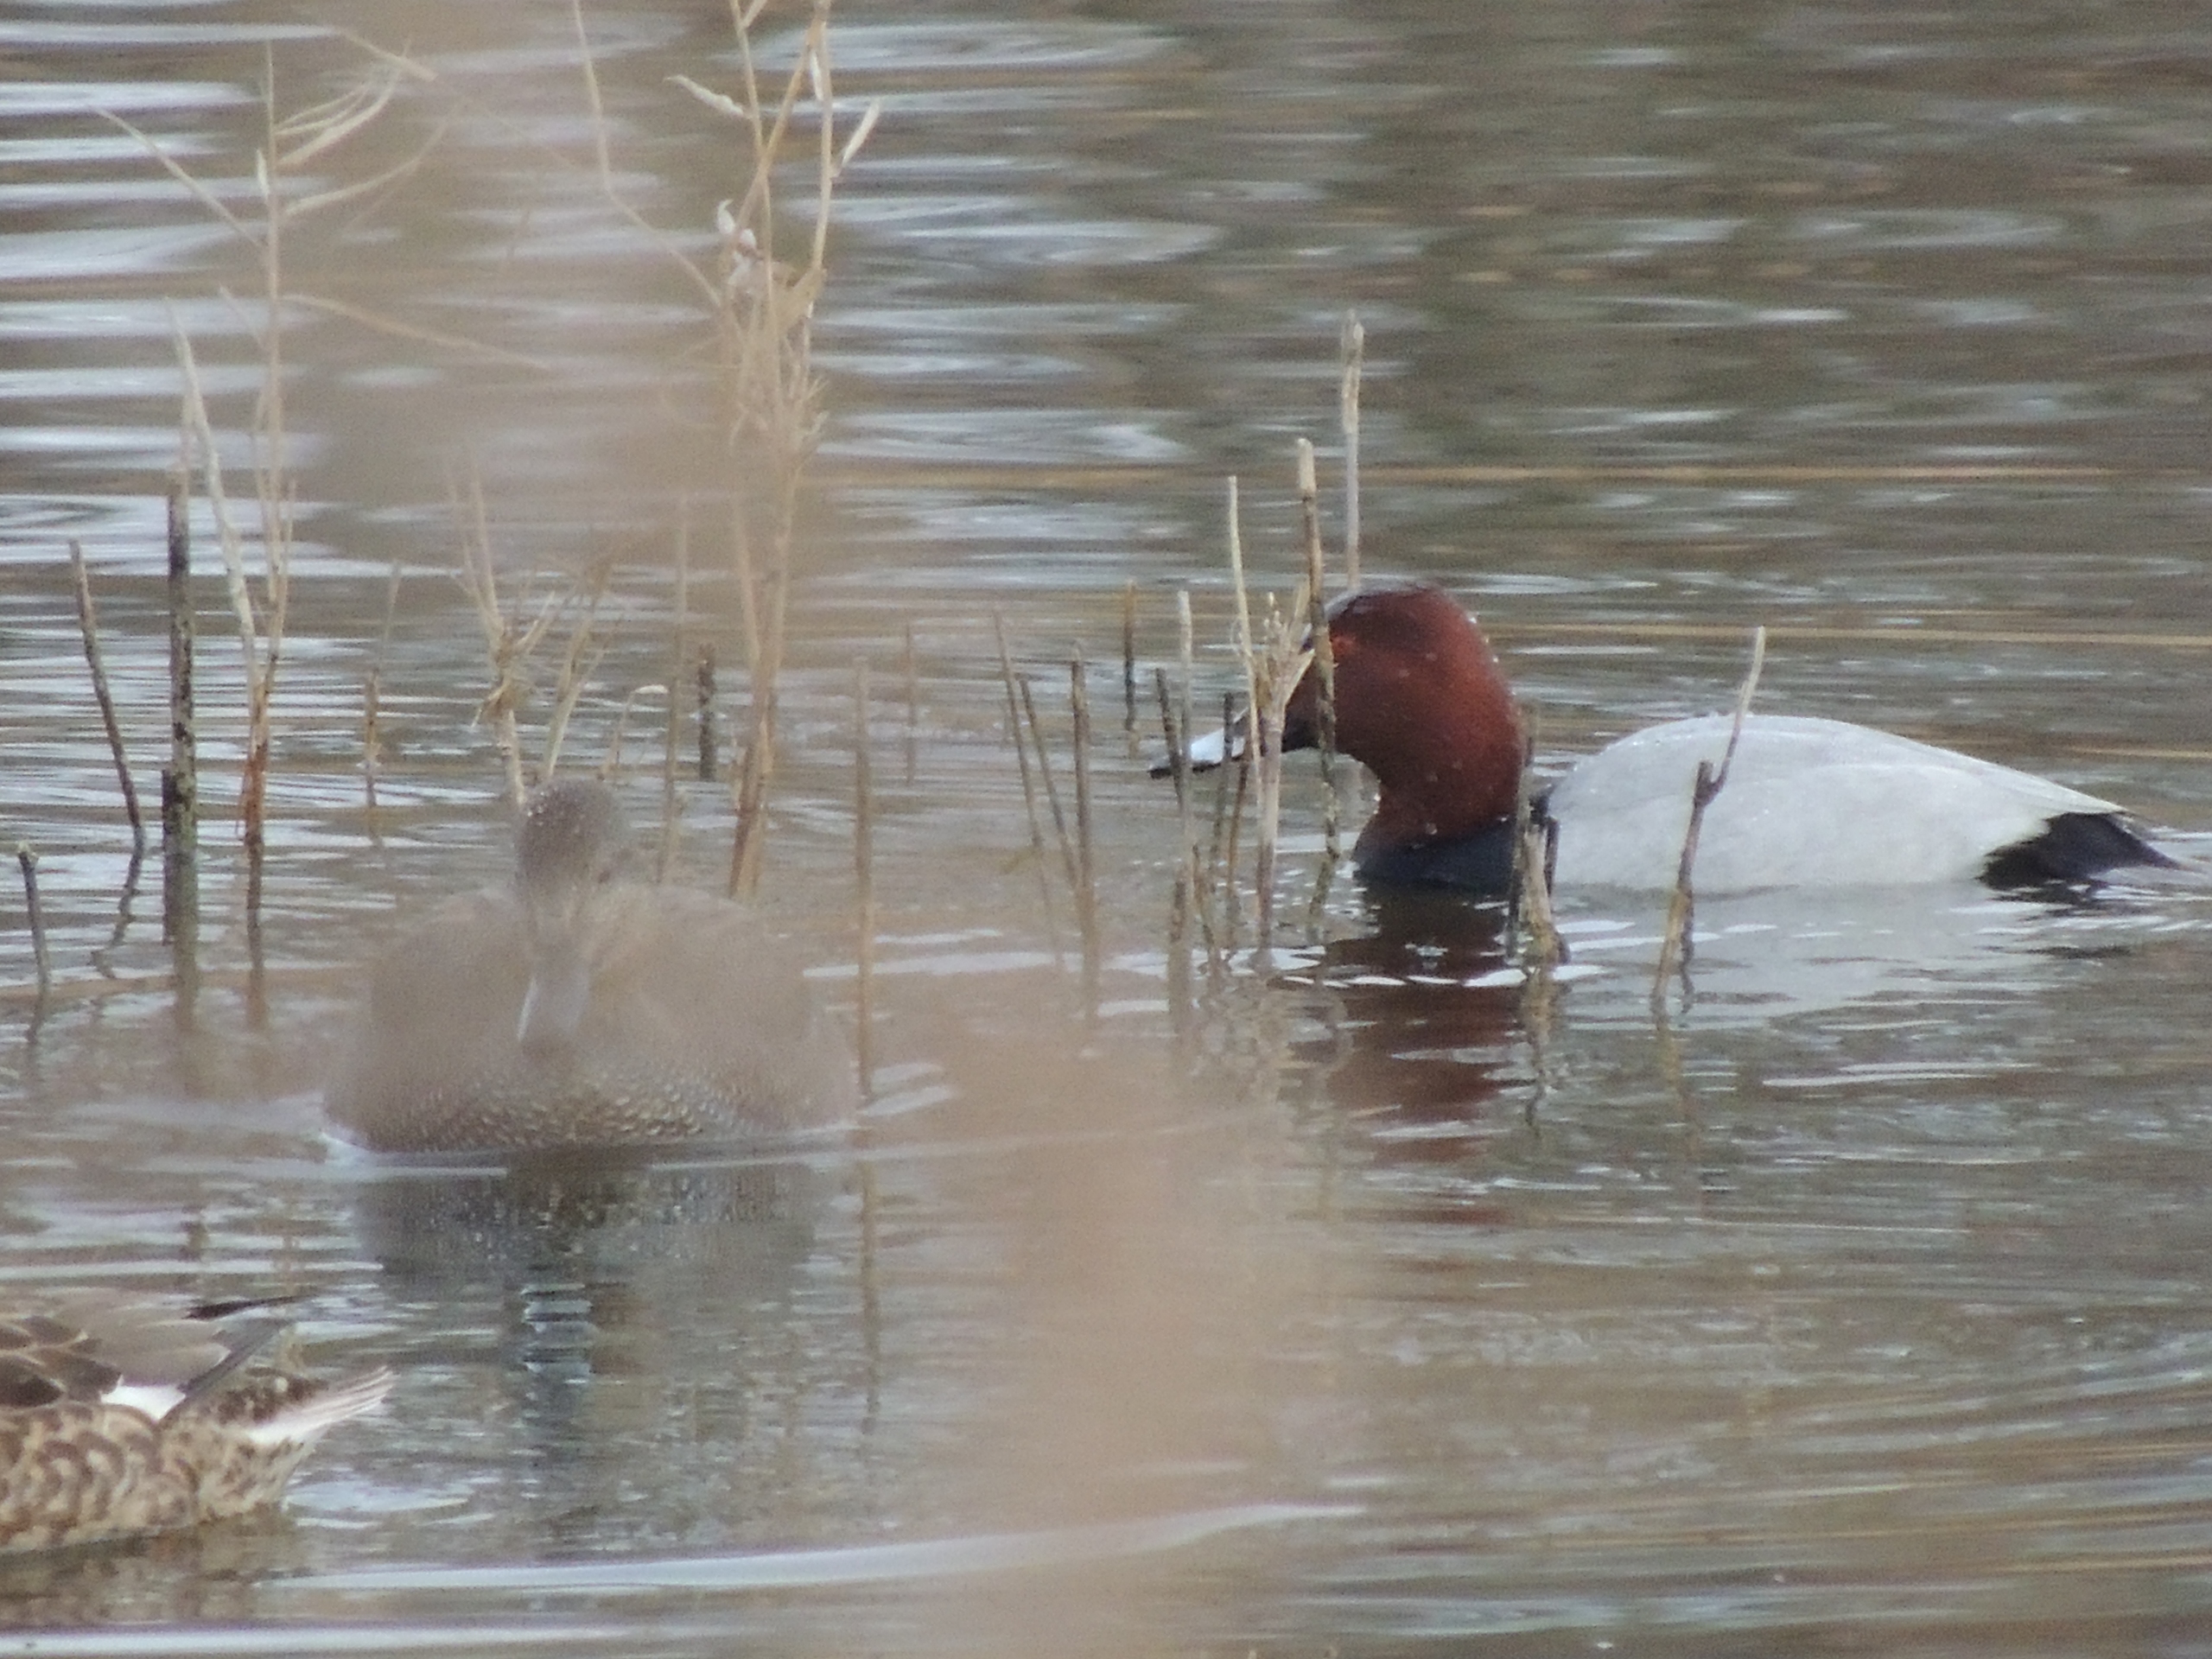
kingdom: Animalia
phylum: Chordata
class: Aves
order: Anseriformes
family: Anatidae
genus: Aythya
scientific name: Aythya ferina
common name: Taffeland
